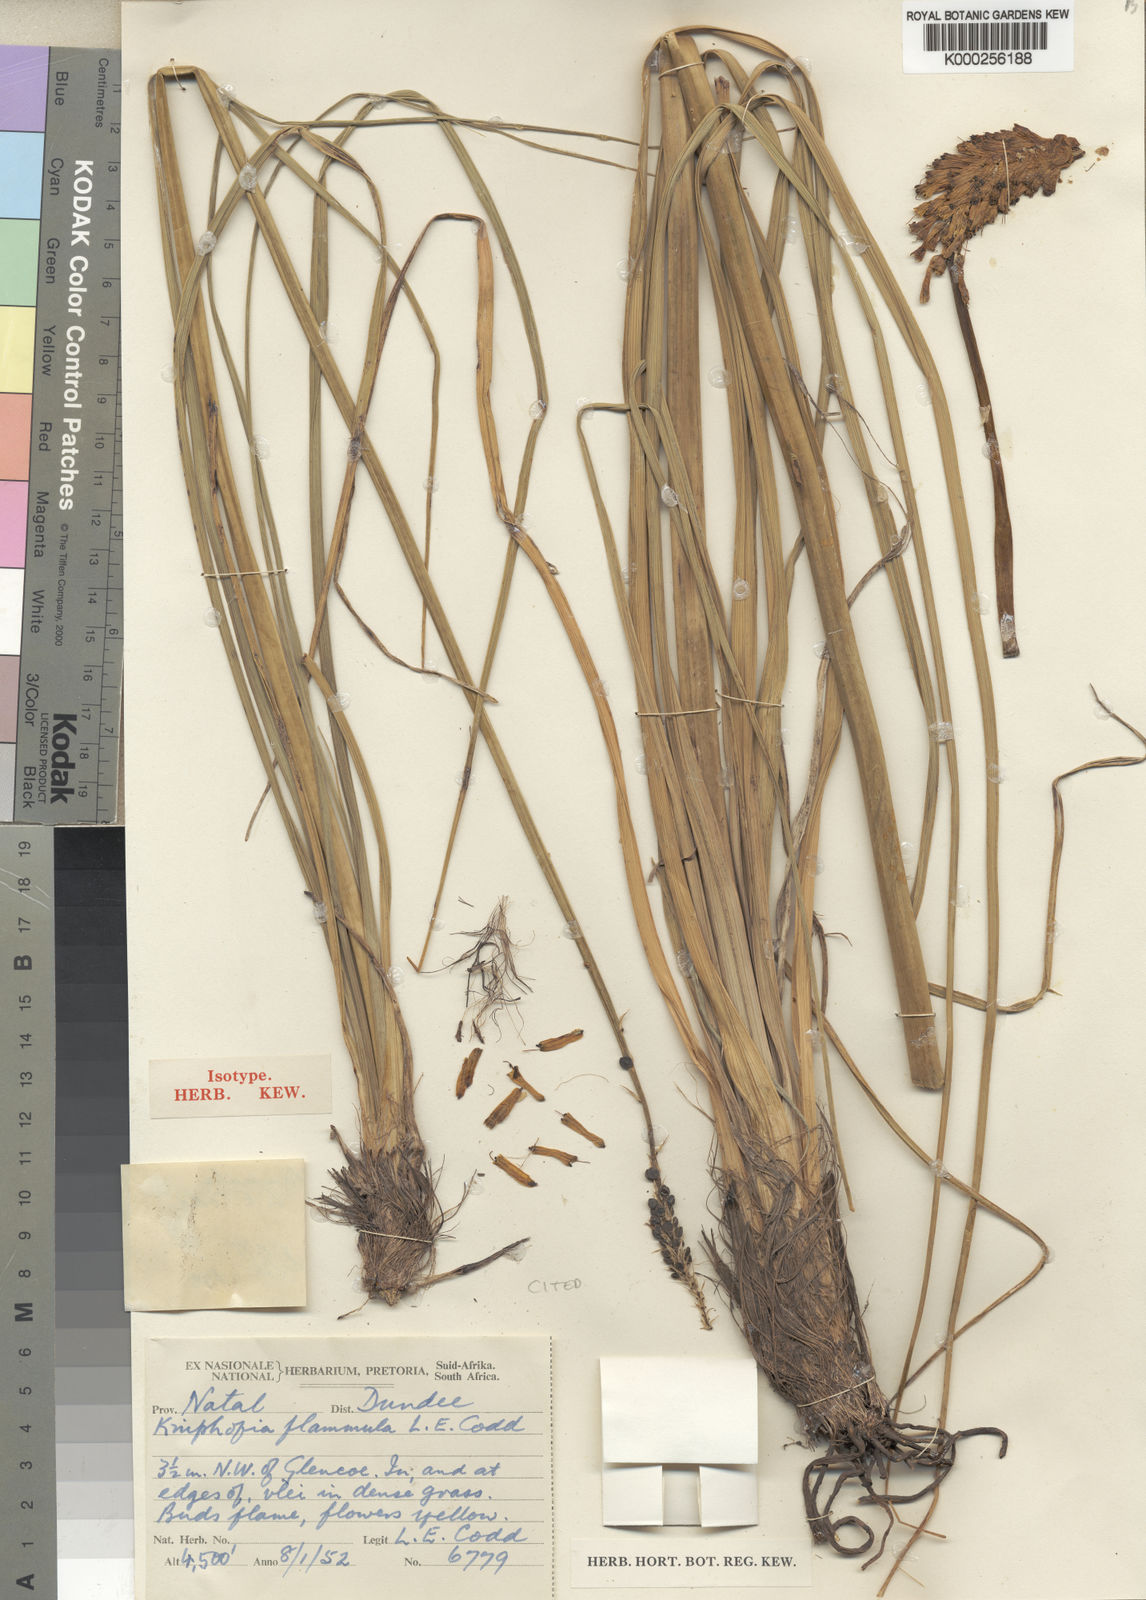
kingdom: Plantae
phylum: Tracheophyta
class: Liliopsida
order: Asparagales
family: Asphodelaceae
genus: Kniphofia
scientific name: Kniphofia flammula
